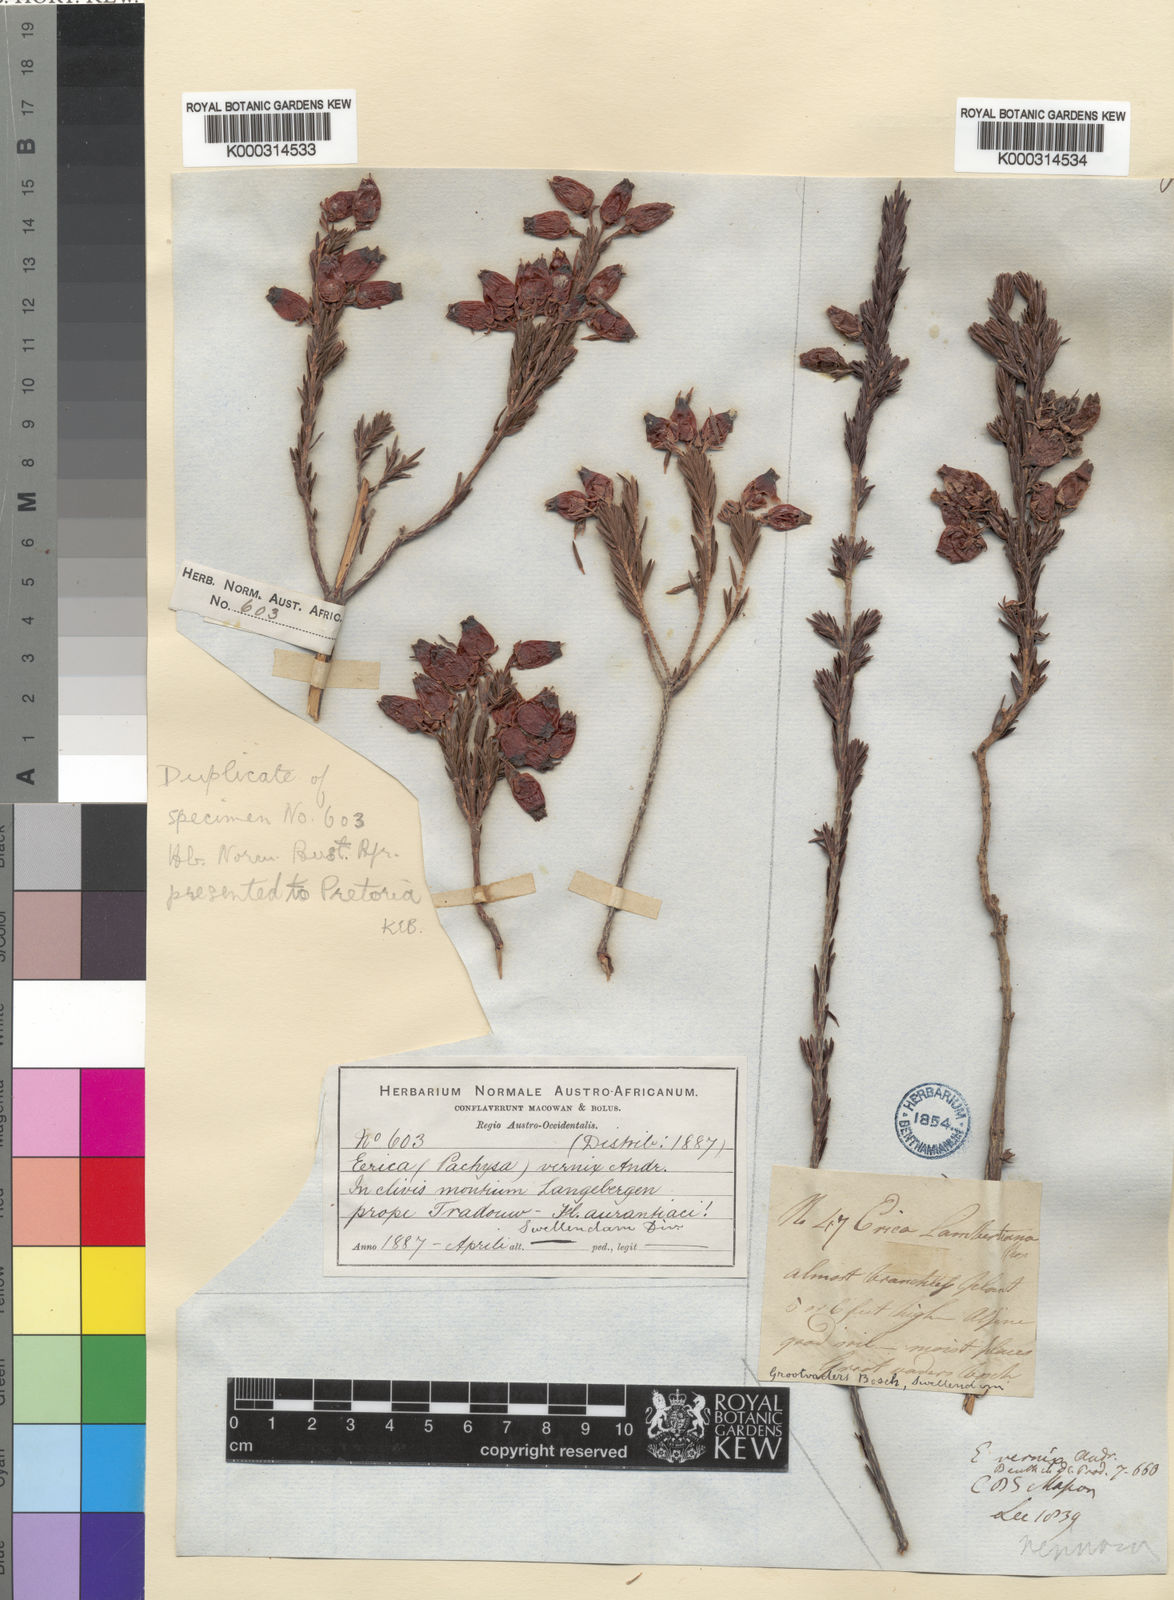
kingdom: Plantae
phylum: Tracheophyta
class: Magnoliopsida
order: Ericales
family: Ericaceae
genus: Erica
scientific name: Erica blenna
